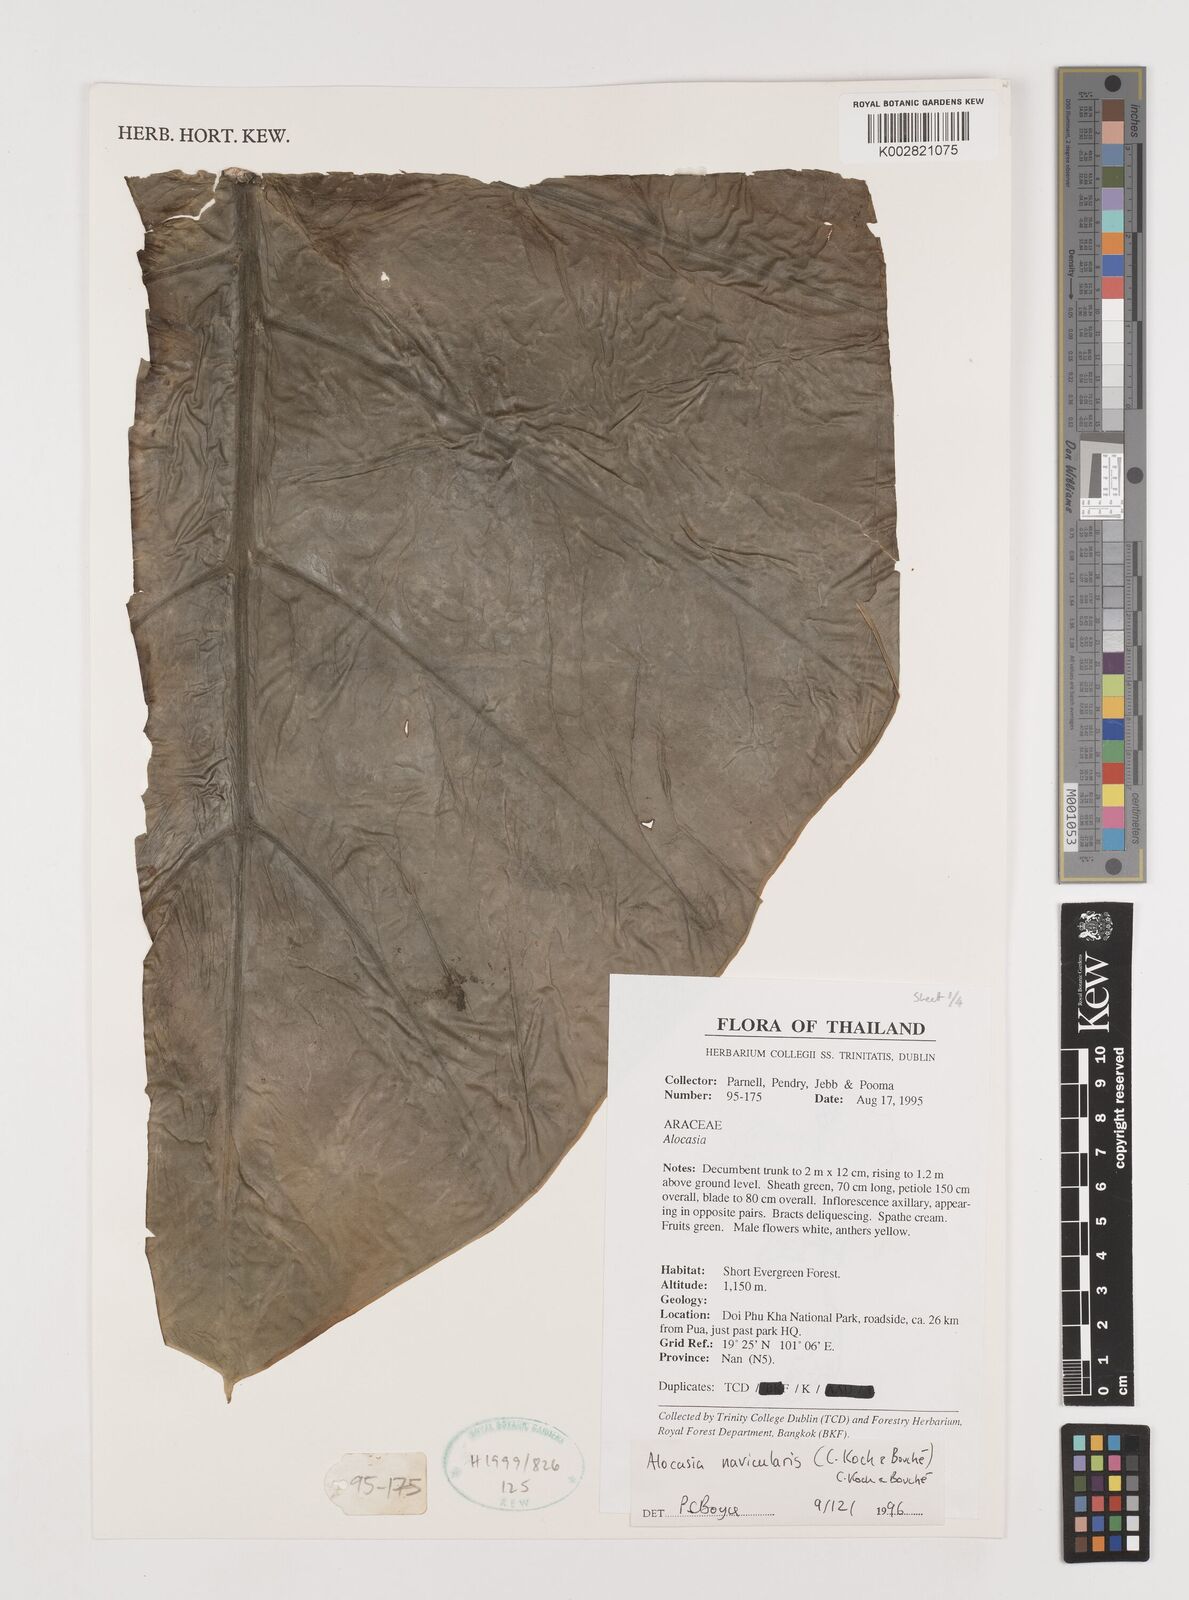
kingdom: Plantae
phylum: Tracheophyta
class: Liliopsida
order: Alismatales
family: Araceae
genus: Alocasia
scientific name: Alocasia navicularis
